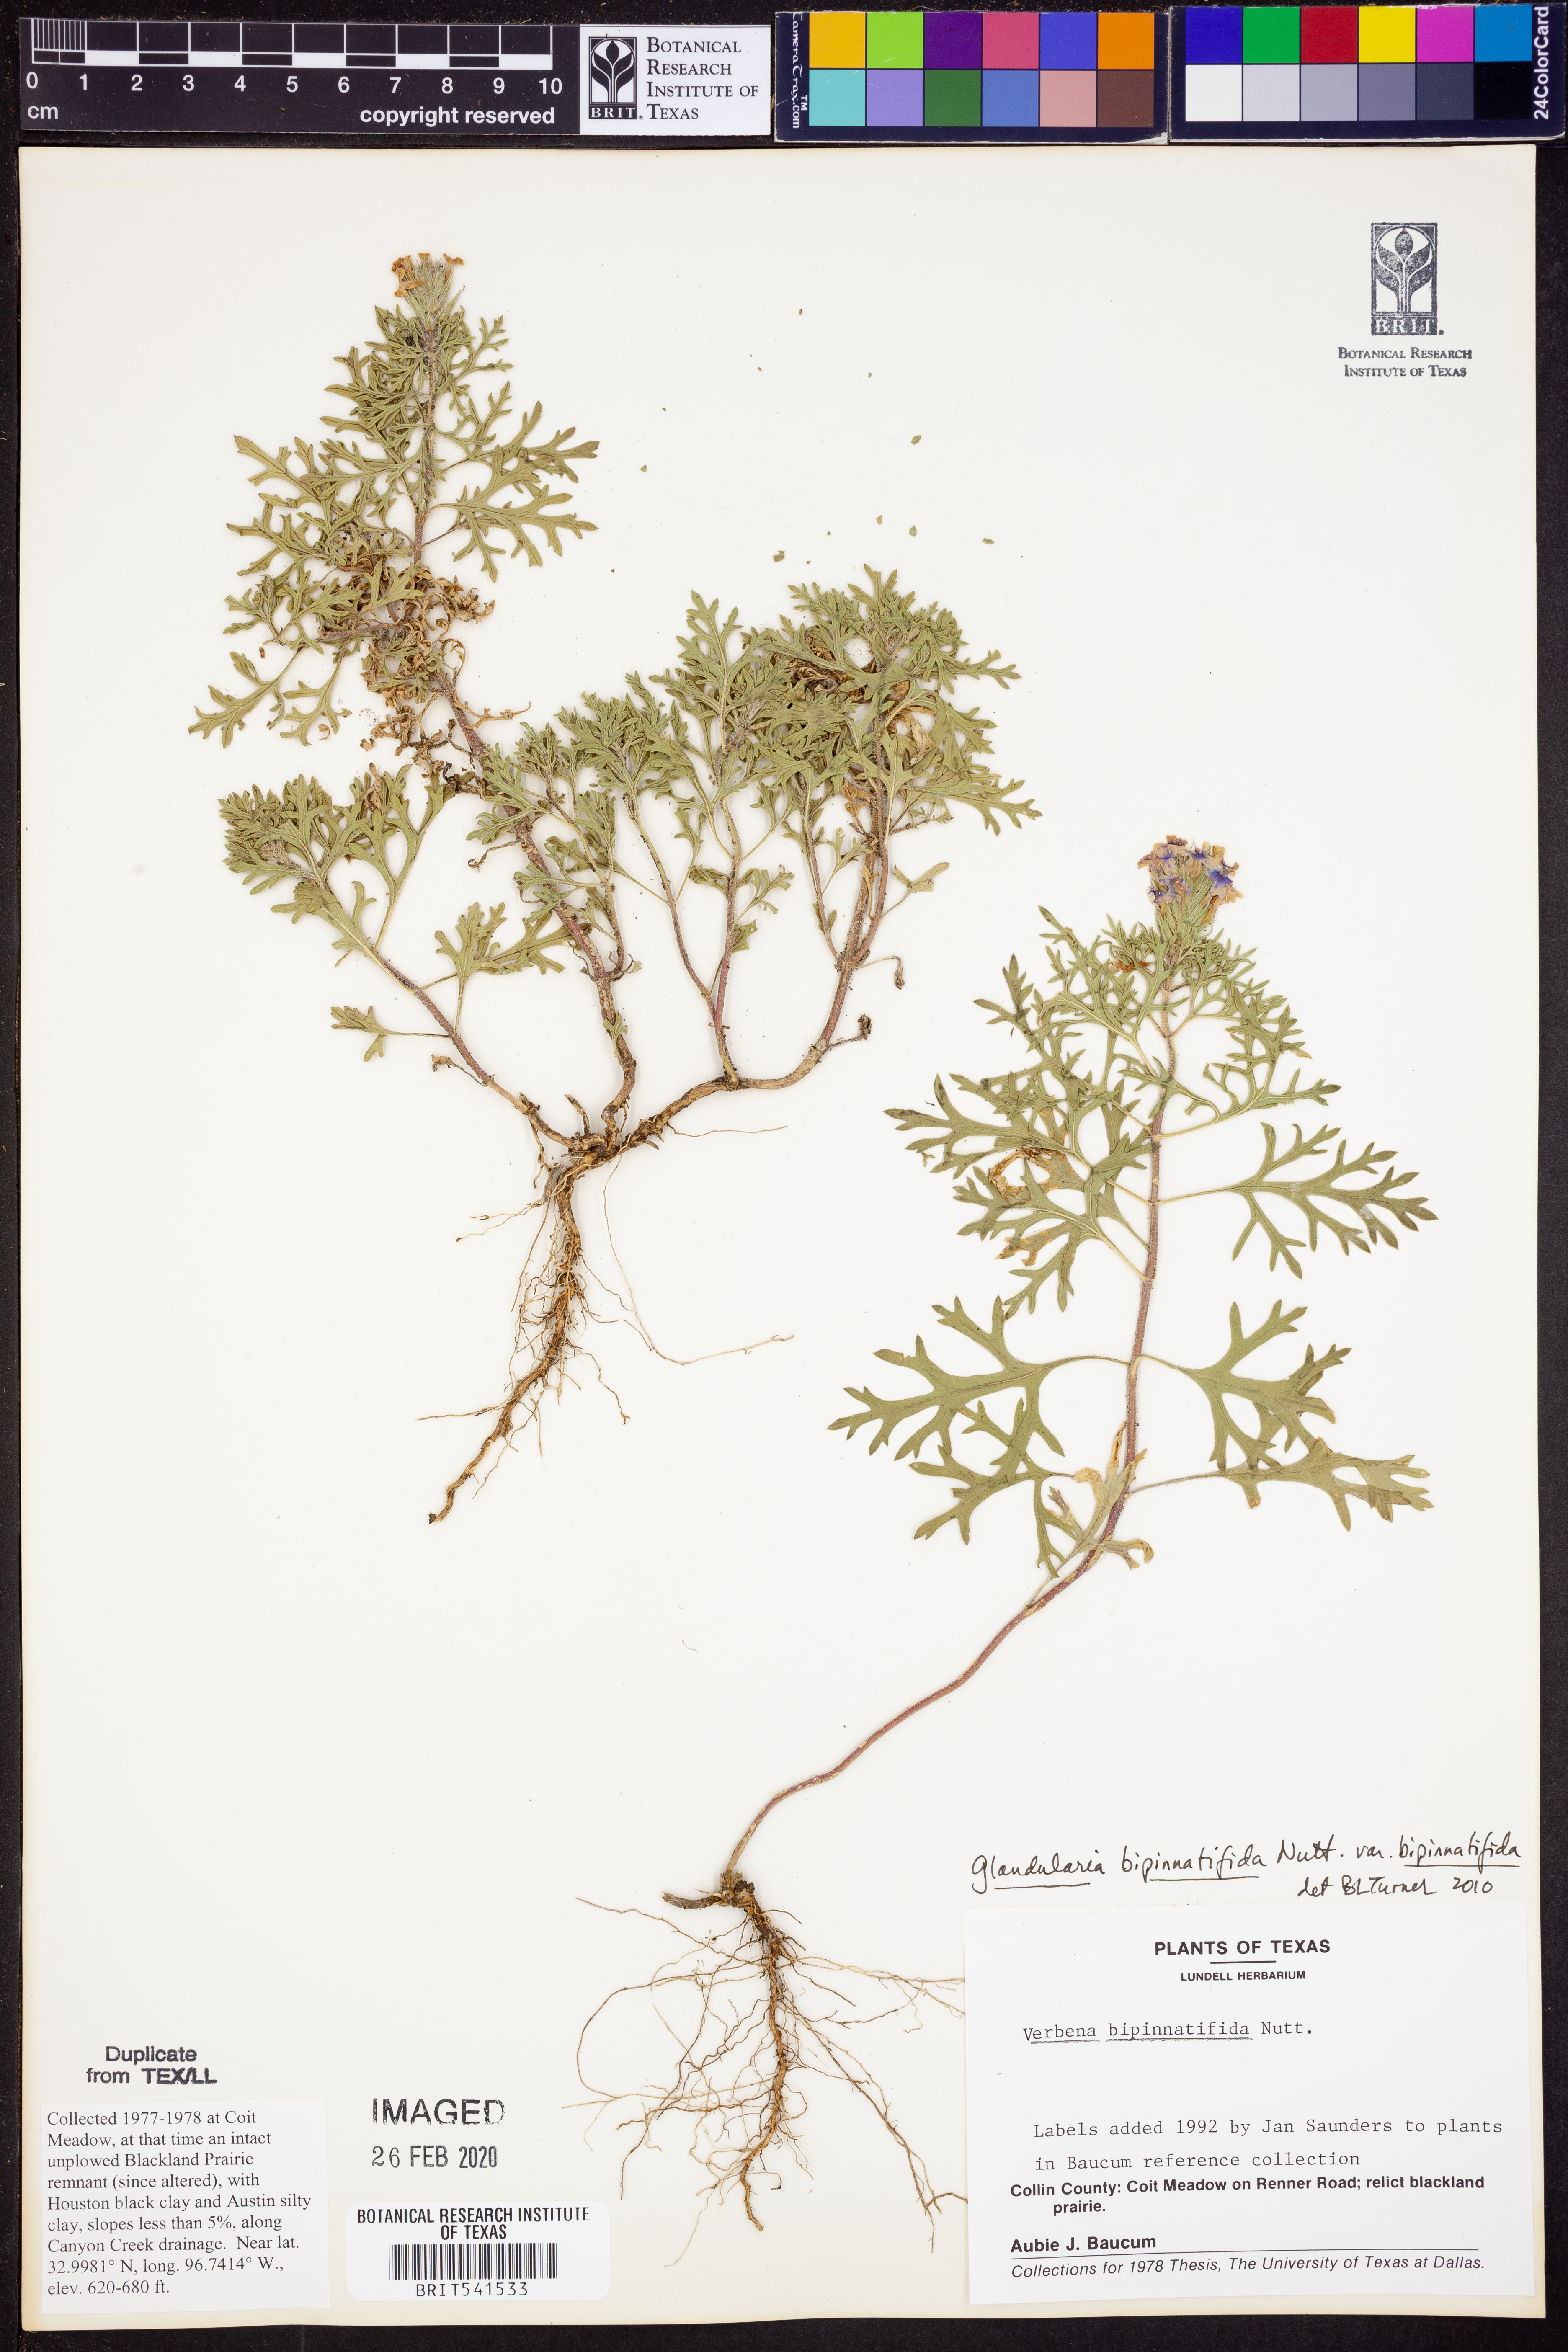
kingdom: Plantae
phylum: Tracheophyta
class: Magnoliopsida
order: Lamiales
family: Verbenaceae
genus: Verbena
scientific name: Verbena bipinnatifida
